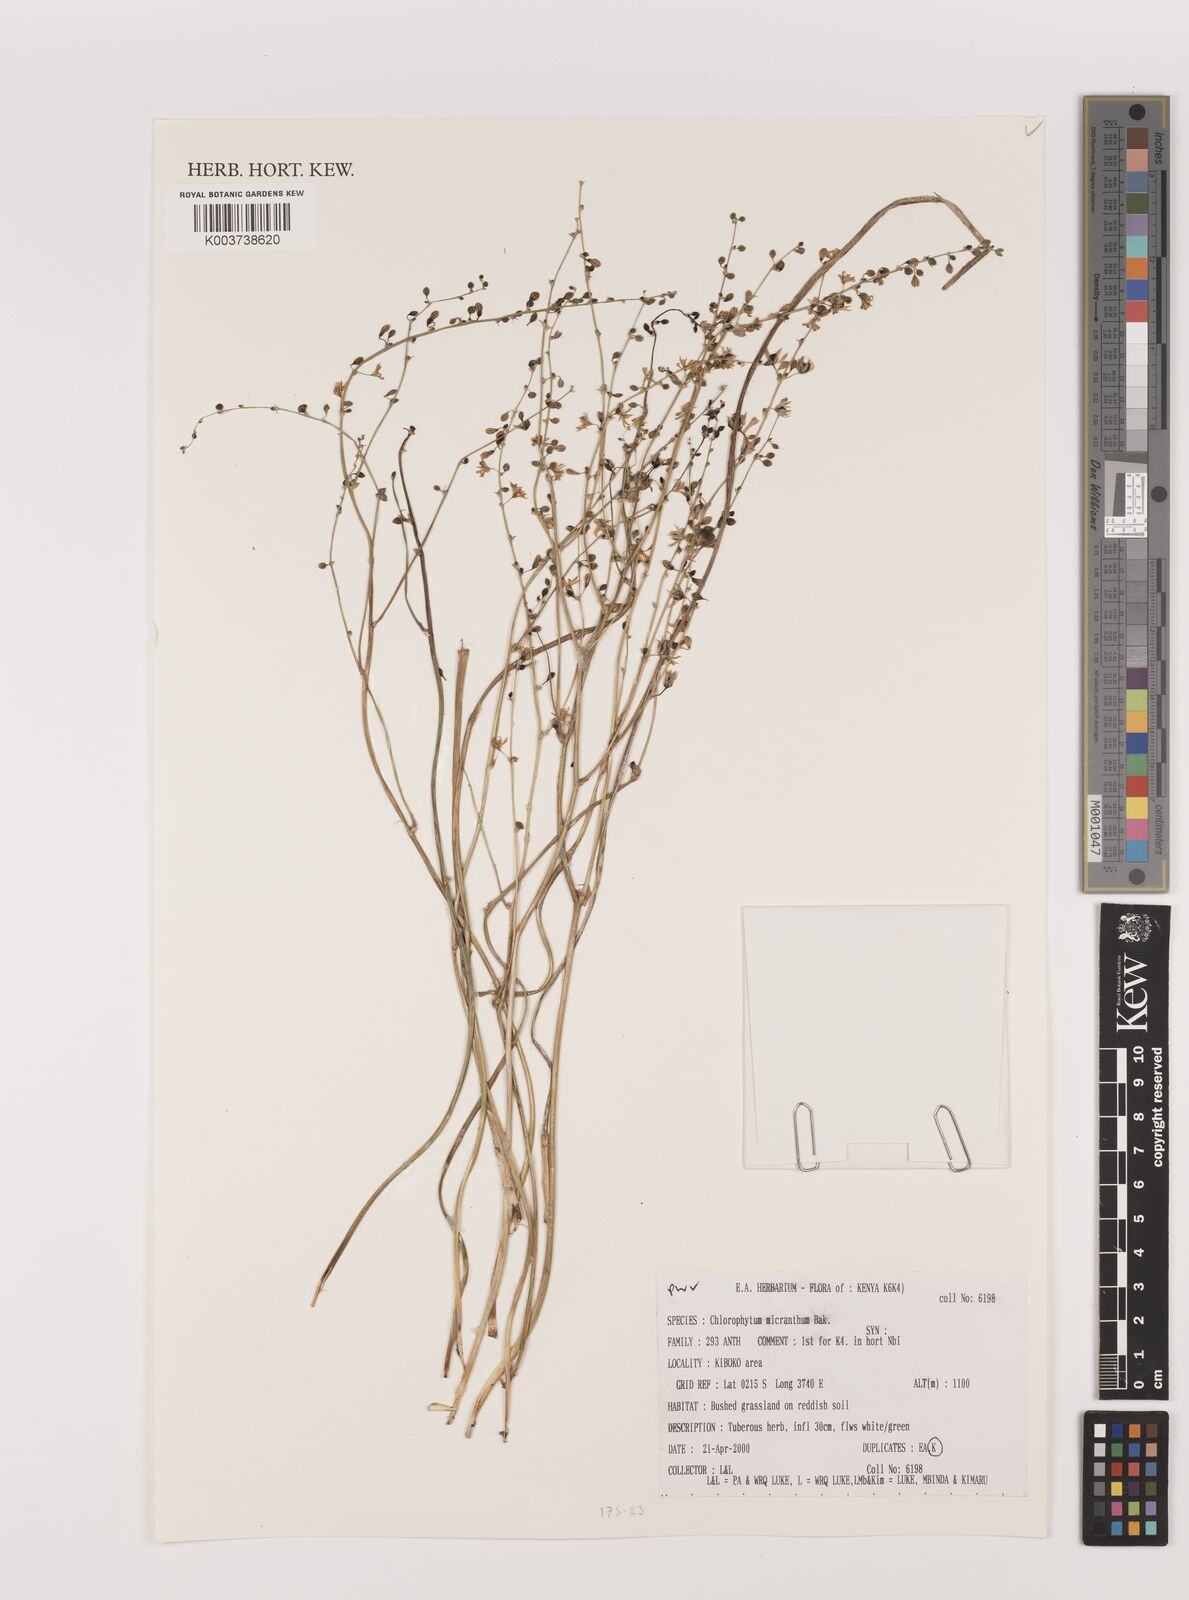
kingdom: Plantae
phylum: Tracheophyta
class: Liliopsida
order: Asparagales
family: Asparagaceae
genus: Chlorophytum
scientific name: Chlorophytum gallabatense
